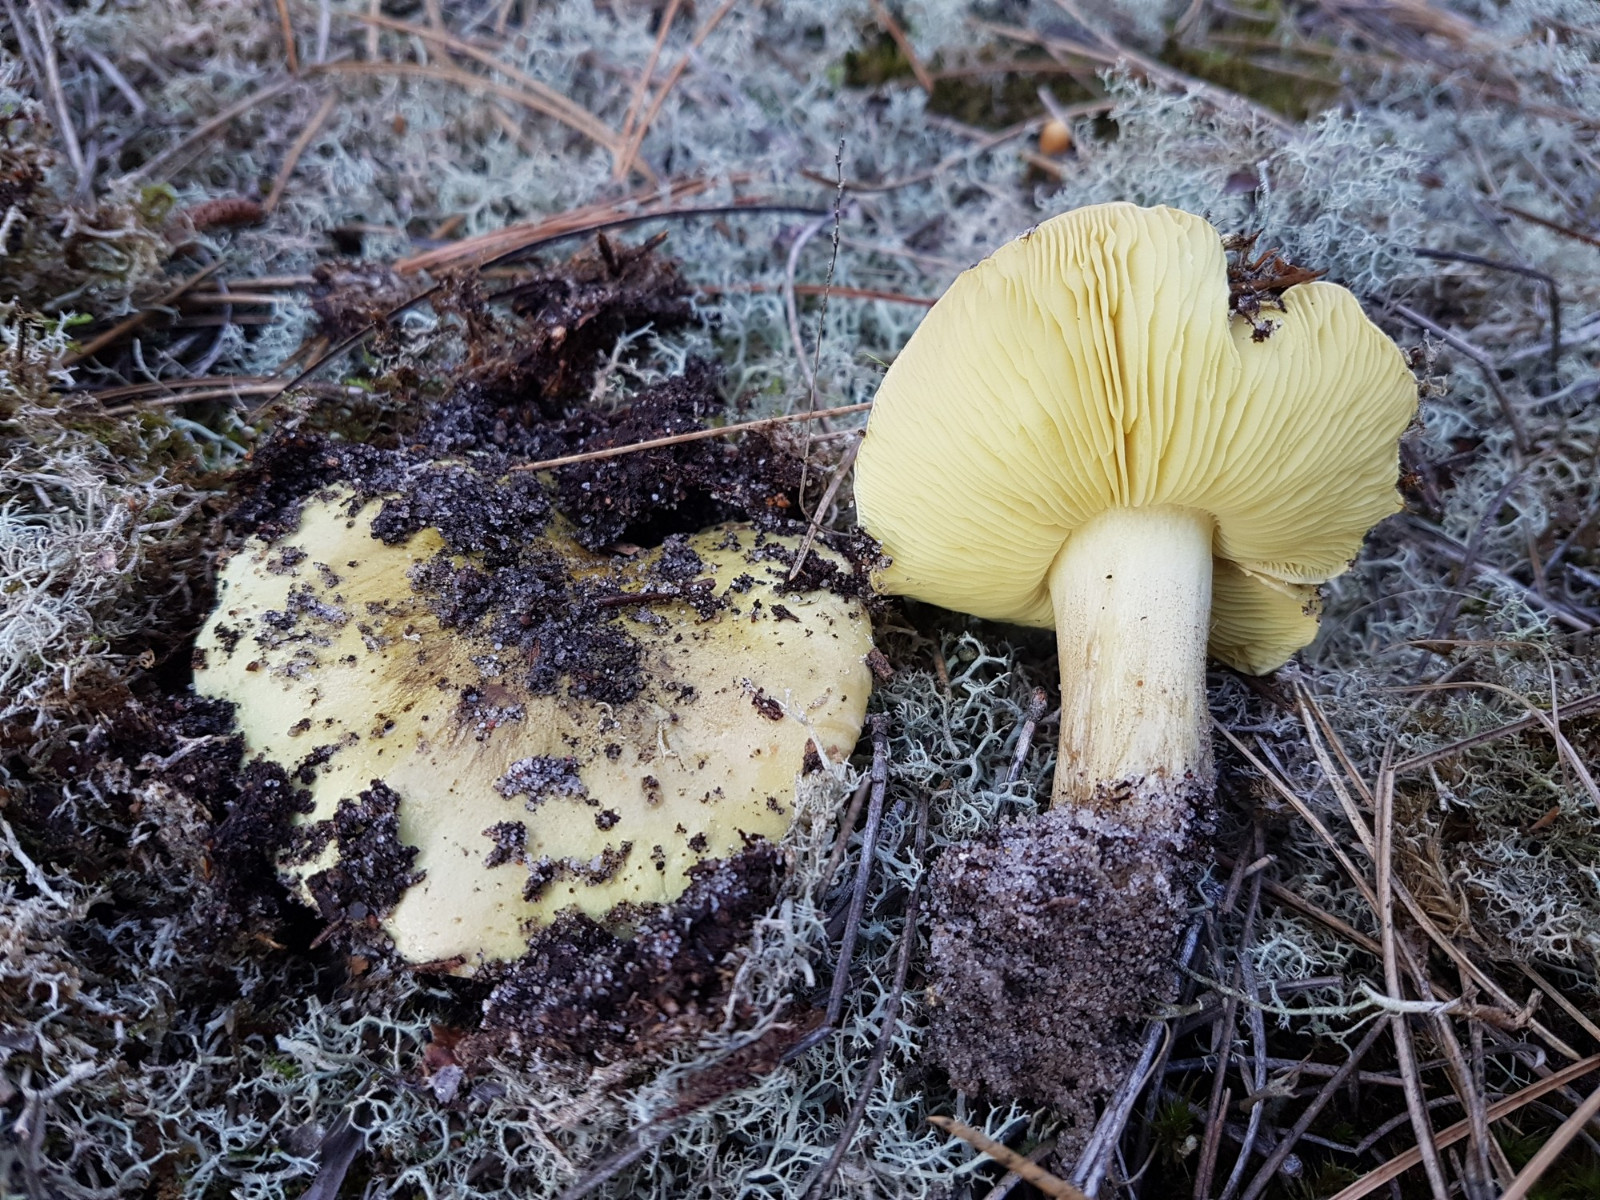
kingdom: Fungi
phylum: Basidiomycota
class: Agaricomycetes
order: Agaricales
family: Tricholomataceae
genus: Tricholoma
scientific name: Tricholoma equestre
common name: ægte ridderhat
